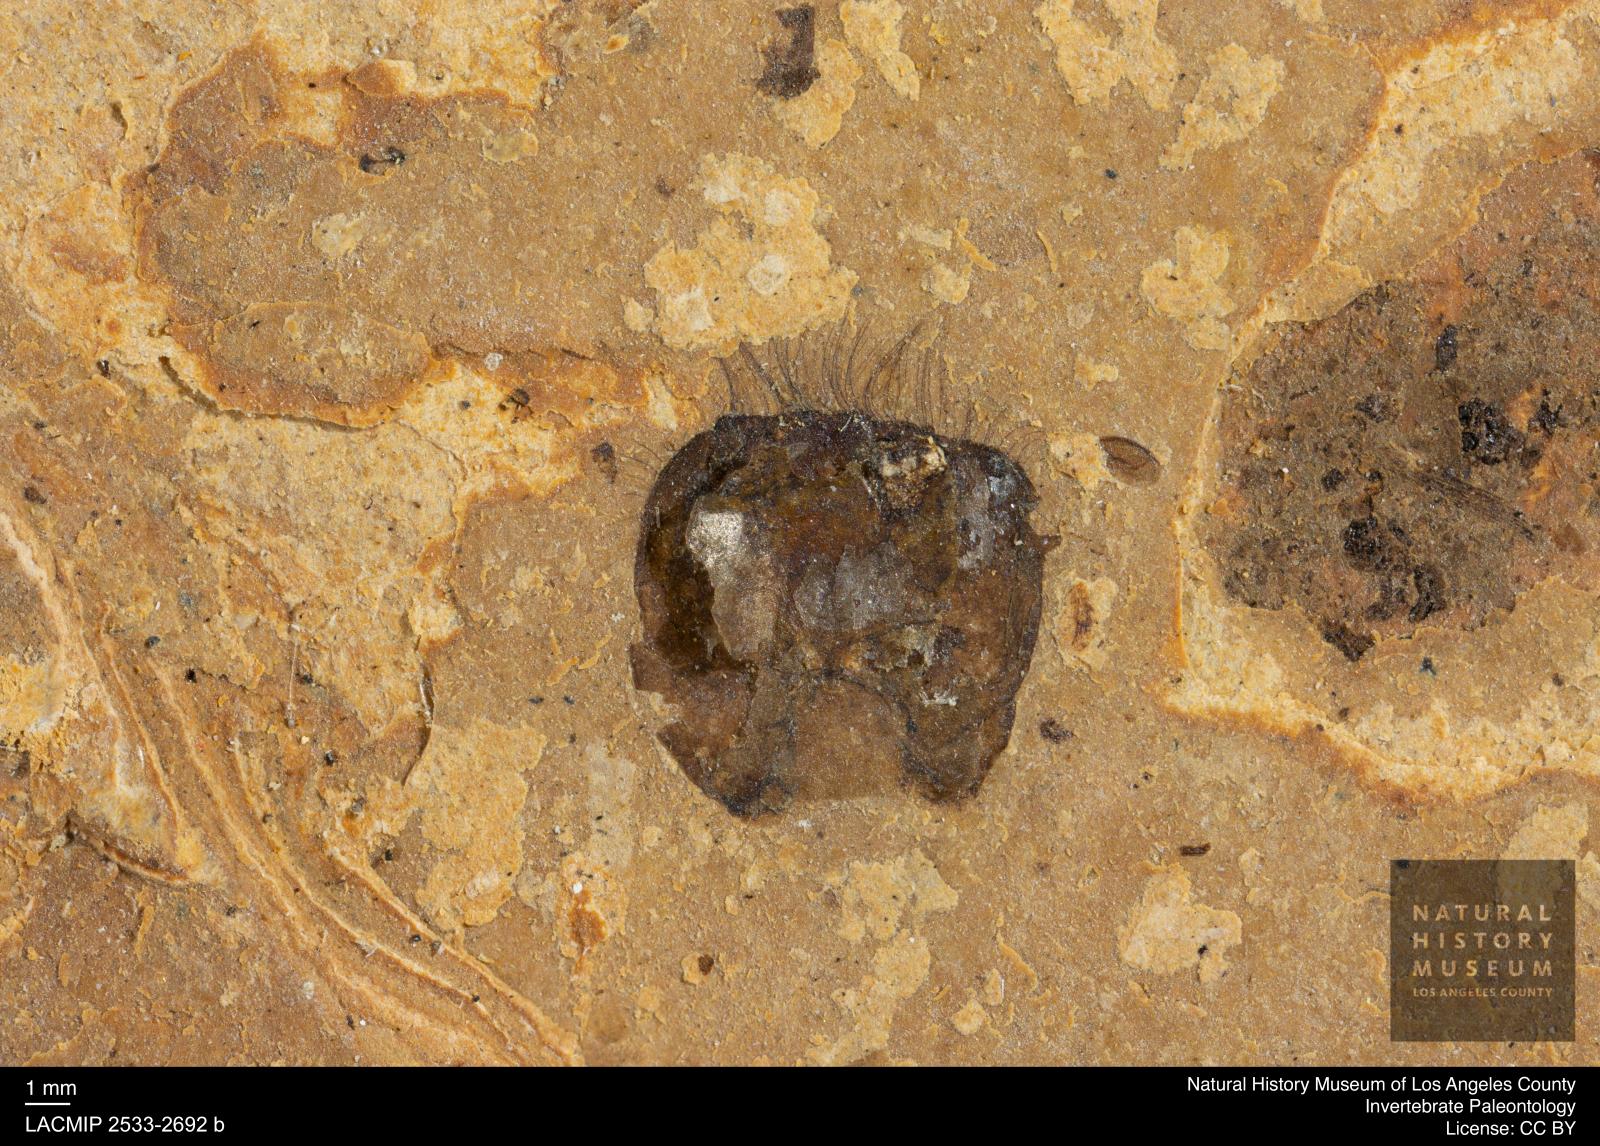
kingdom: Animalia
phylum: Arthropoda
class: Insecta
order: Hymenoptera
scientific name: Hymenoptera
